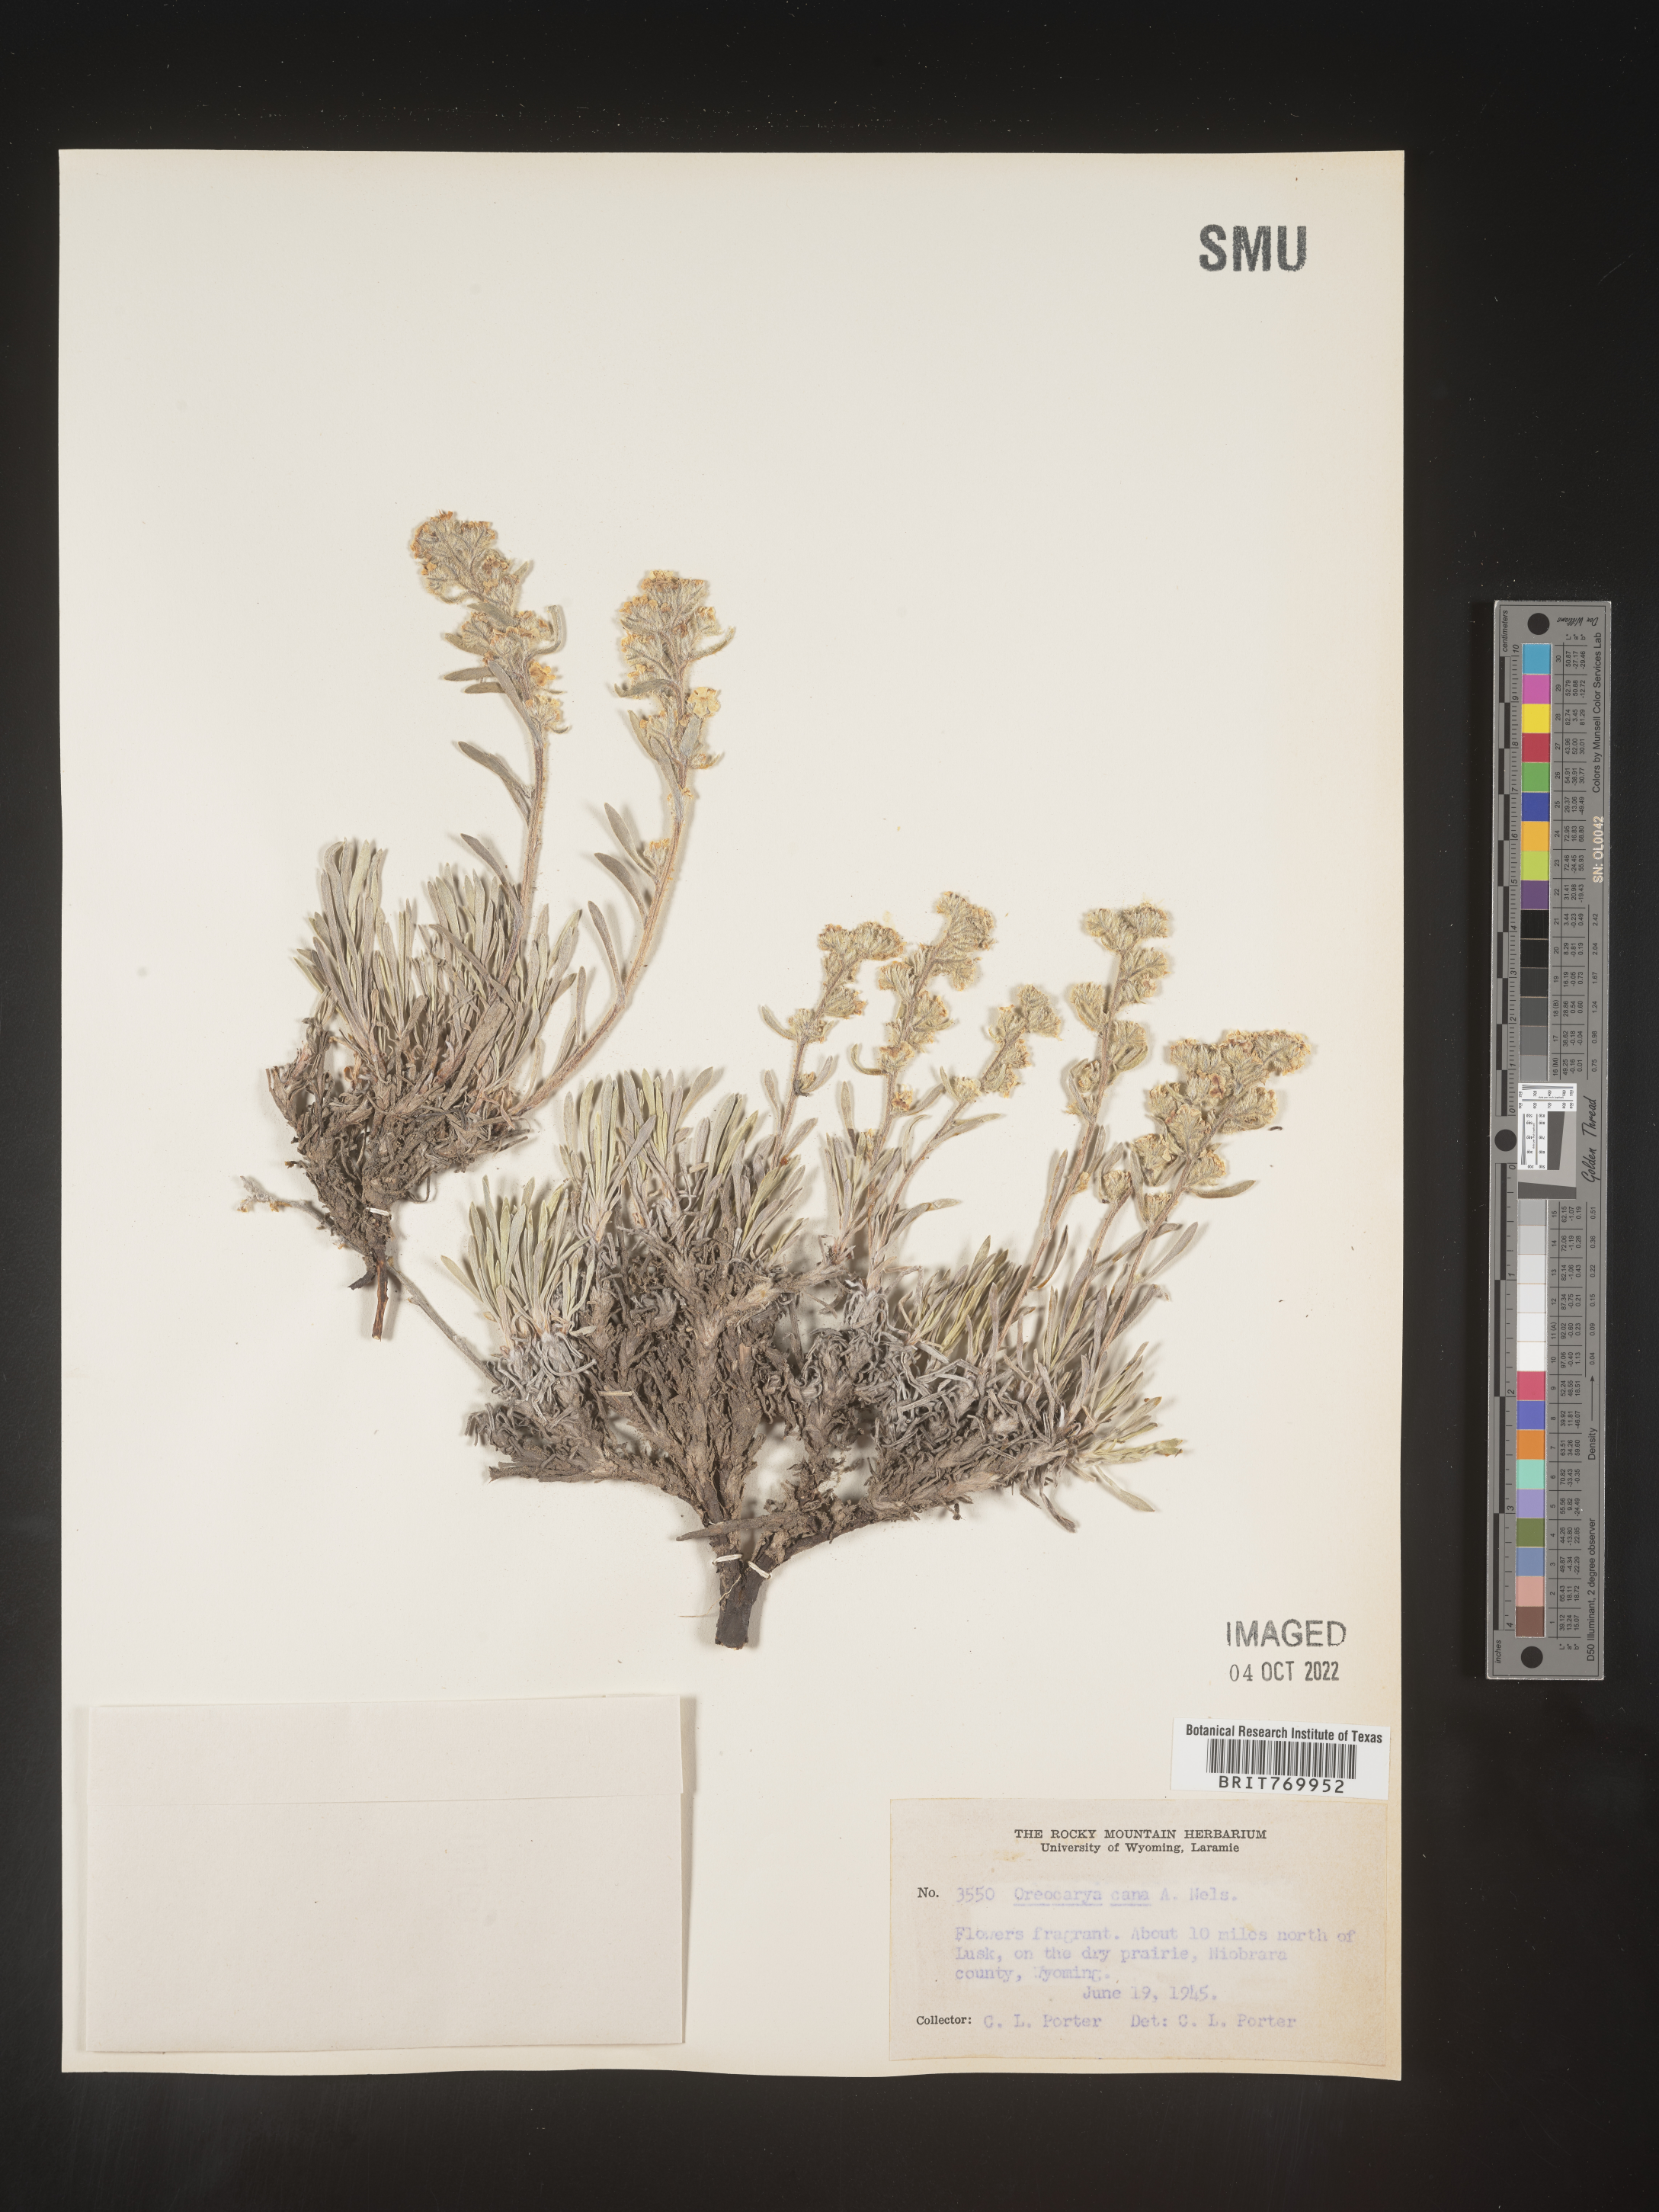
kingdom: Plantae
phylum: Tracheophyta
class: Magnoliopsida
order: Boraginales
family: Boraginaceae
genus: Oreocarya
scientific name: Oreocarya
